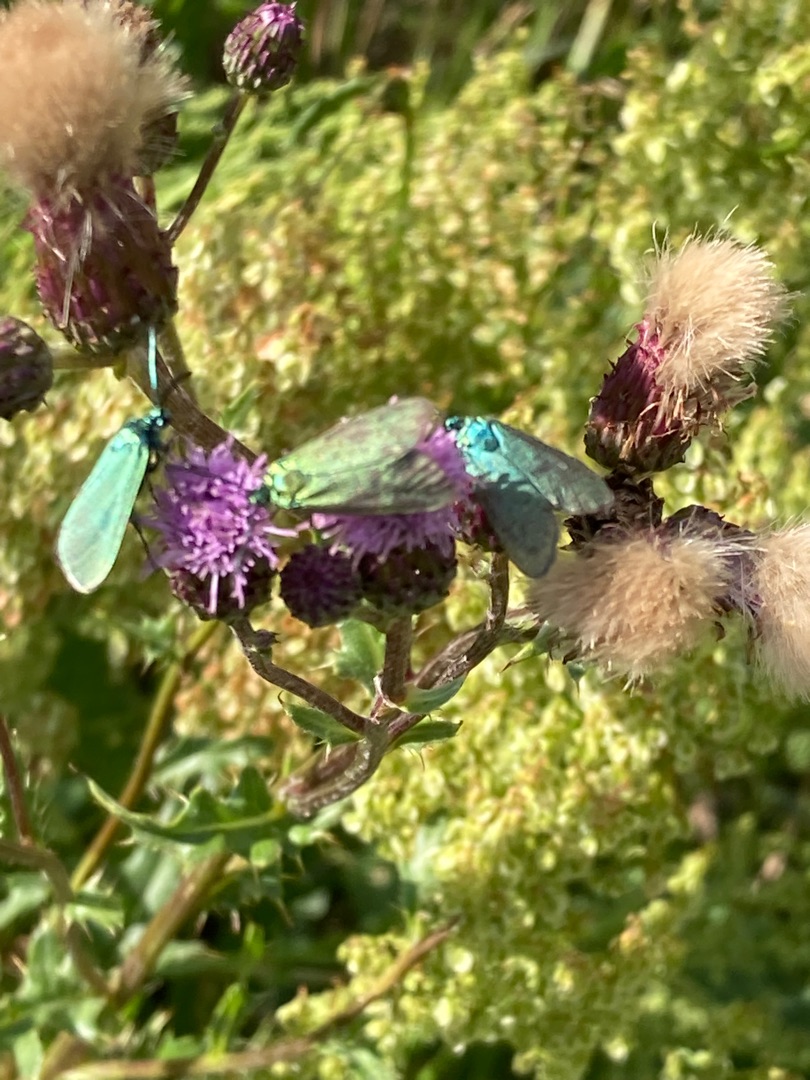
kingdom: Animalia
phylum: Arthropoda
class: Insecta
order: Lepidoptera
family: Zygaenidae
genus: Adscita
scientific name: Adscita statices
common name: Metalvinge
